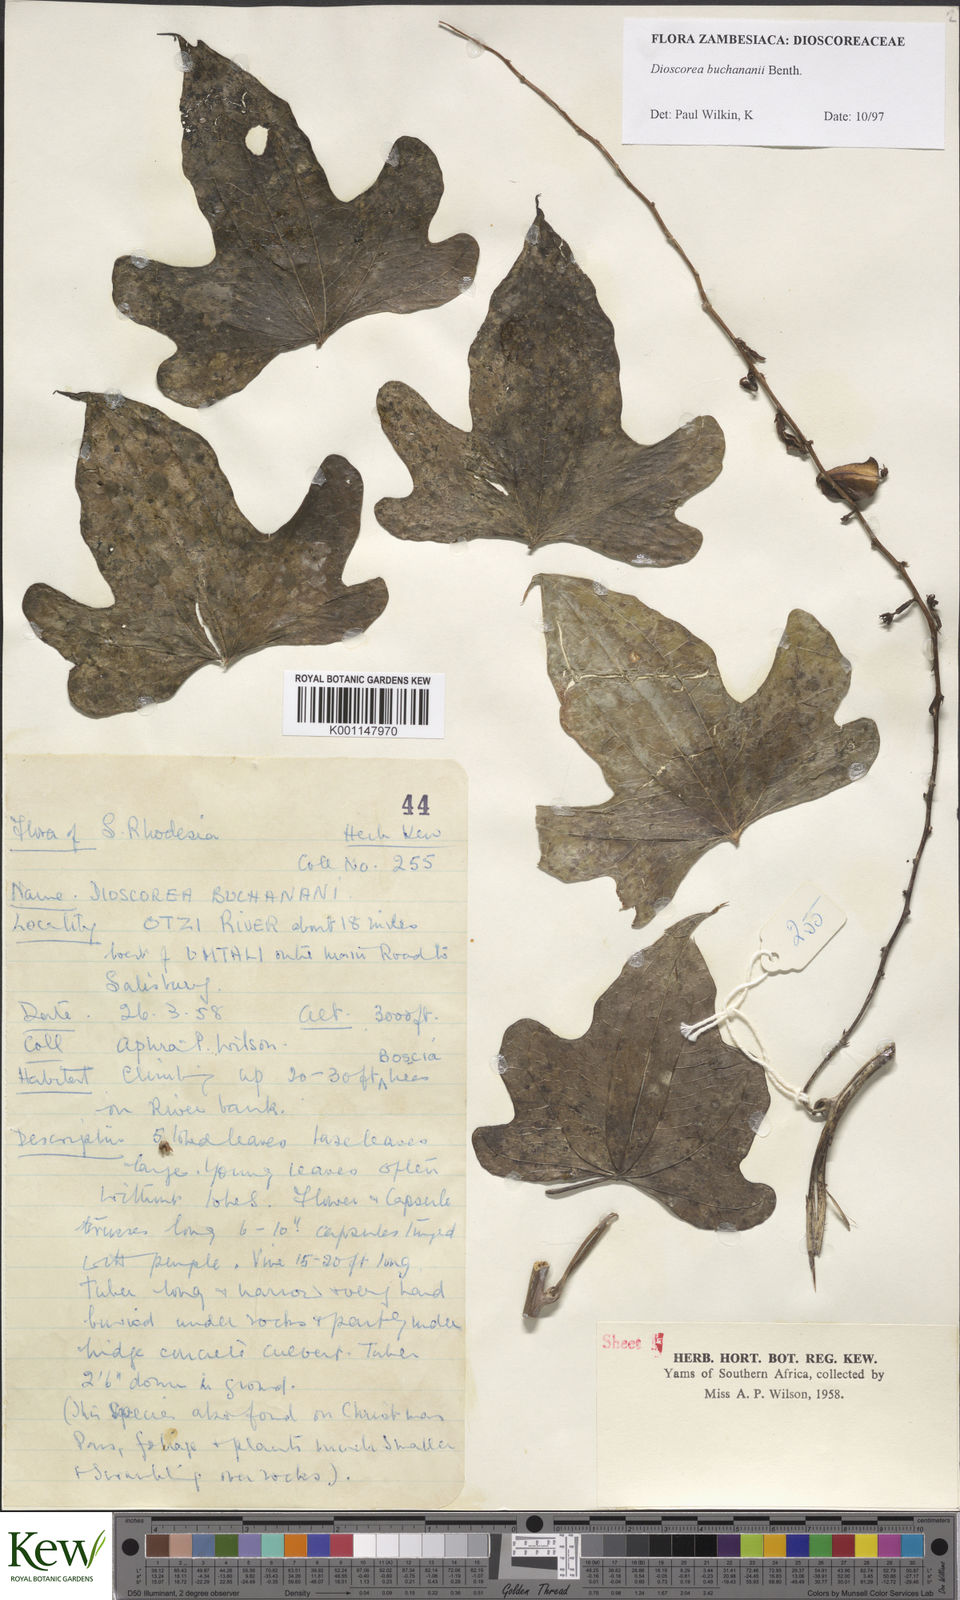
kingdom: Plantae
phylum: Tracheophyta
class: Liliopsida
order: Dioscoreales
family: Dioscoreaceae
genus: Dioscorea
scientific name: Dioscorea buchananii
